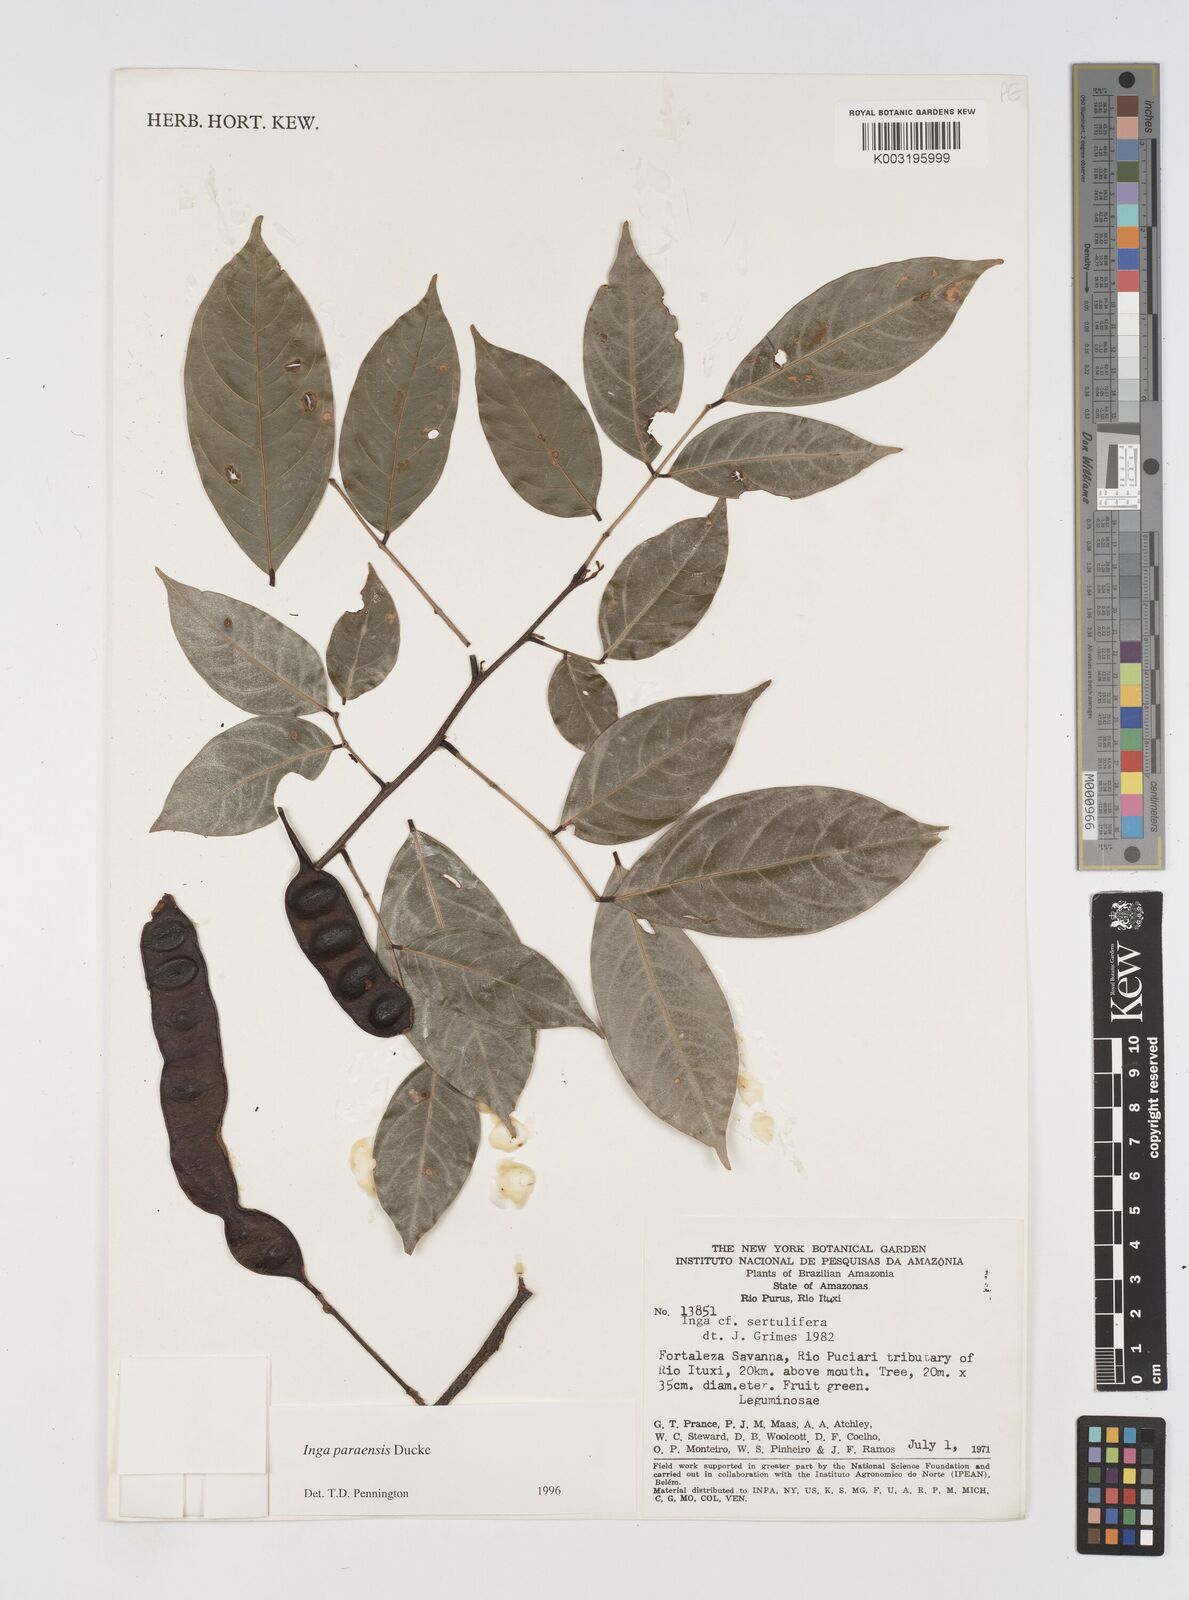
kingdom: Plantae
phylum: Tracheophyta
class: Magnoliopsida
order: Fabales
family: Fabaceae
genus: Inga
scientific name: Inga paraensis
